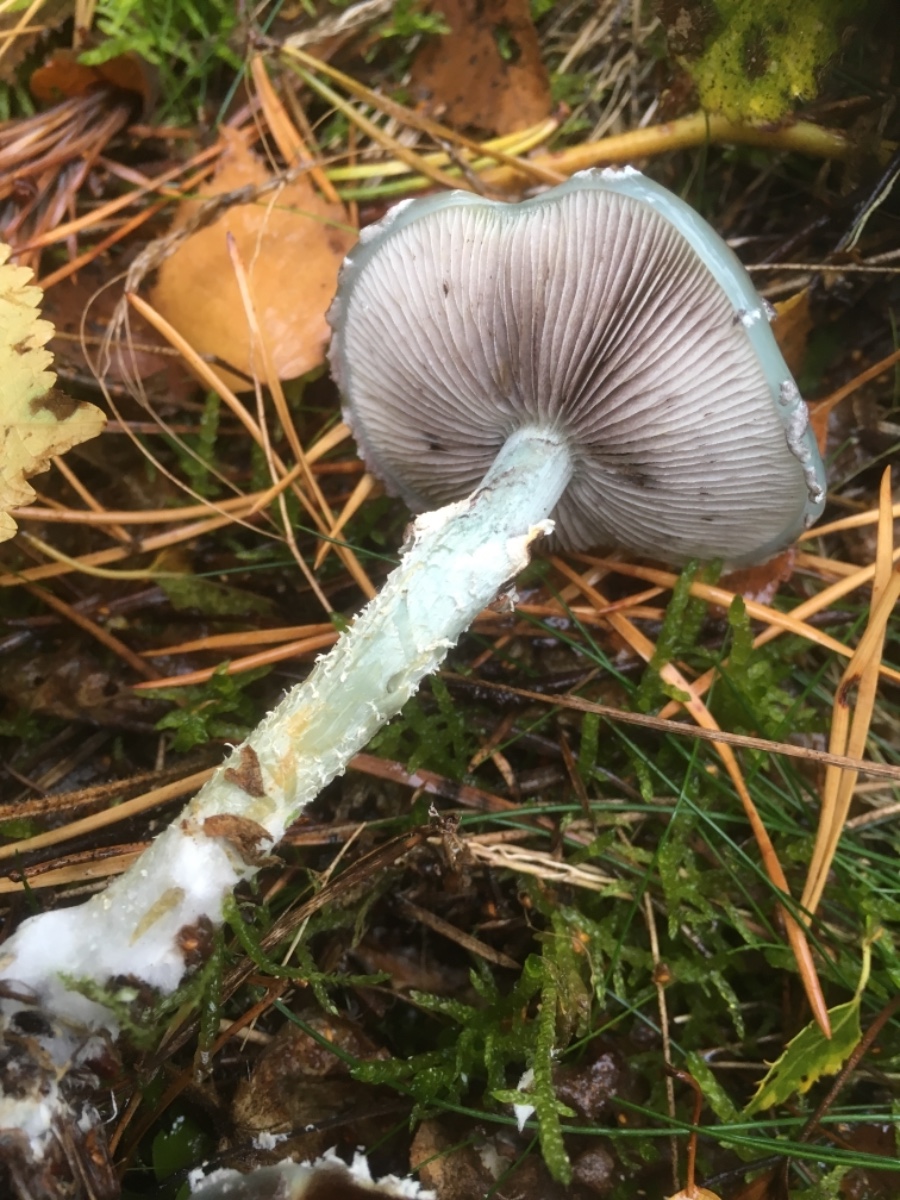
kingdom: Fungi
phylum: Basidiomycota
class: Agaricomycetes
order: Agaricales
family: Strophariaceae
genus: Stropharia
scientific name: Stropharia aeruginosa
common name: spanskgrøn bredblad
